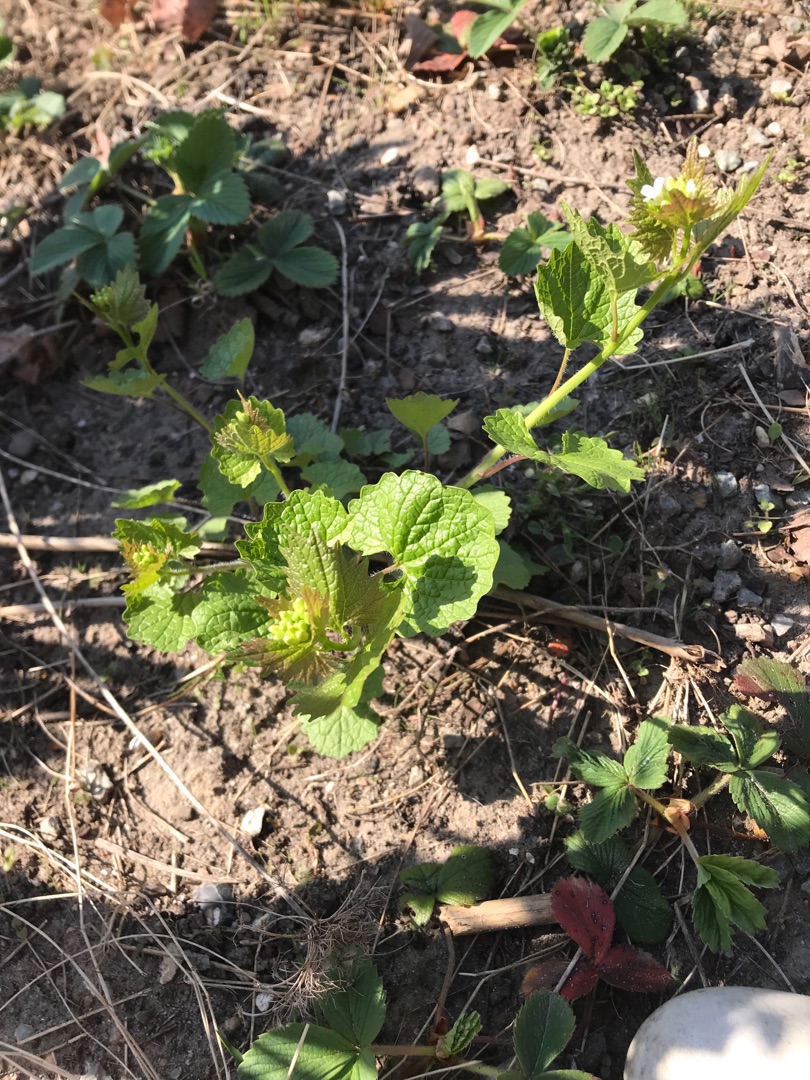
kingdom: Plantae
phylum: Tracheophyta
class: Magnoliopsida
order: Brassicales
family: Brassicaceae
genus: Alliaria
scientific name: Alliaria petiolata
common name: Løgkarse
